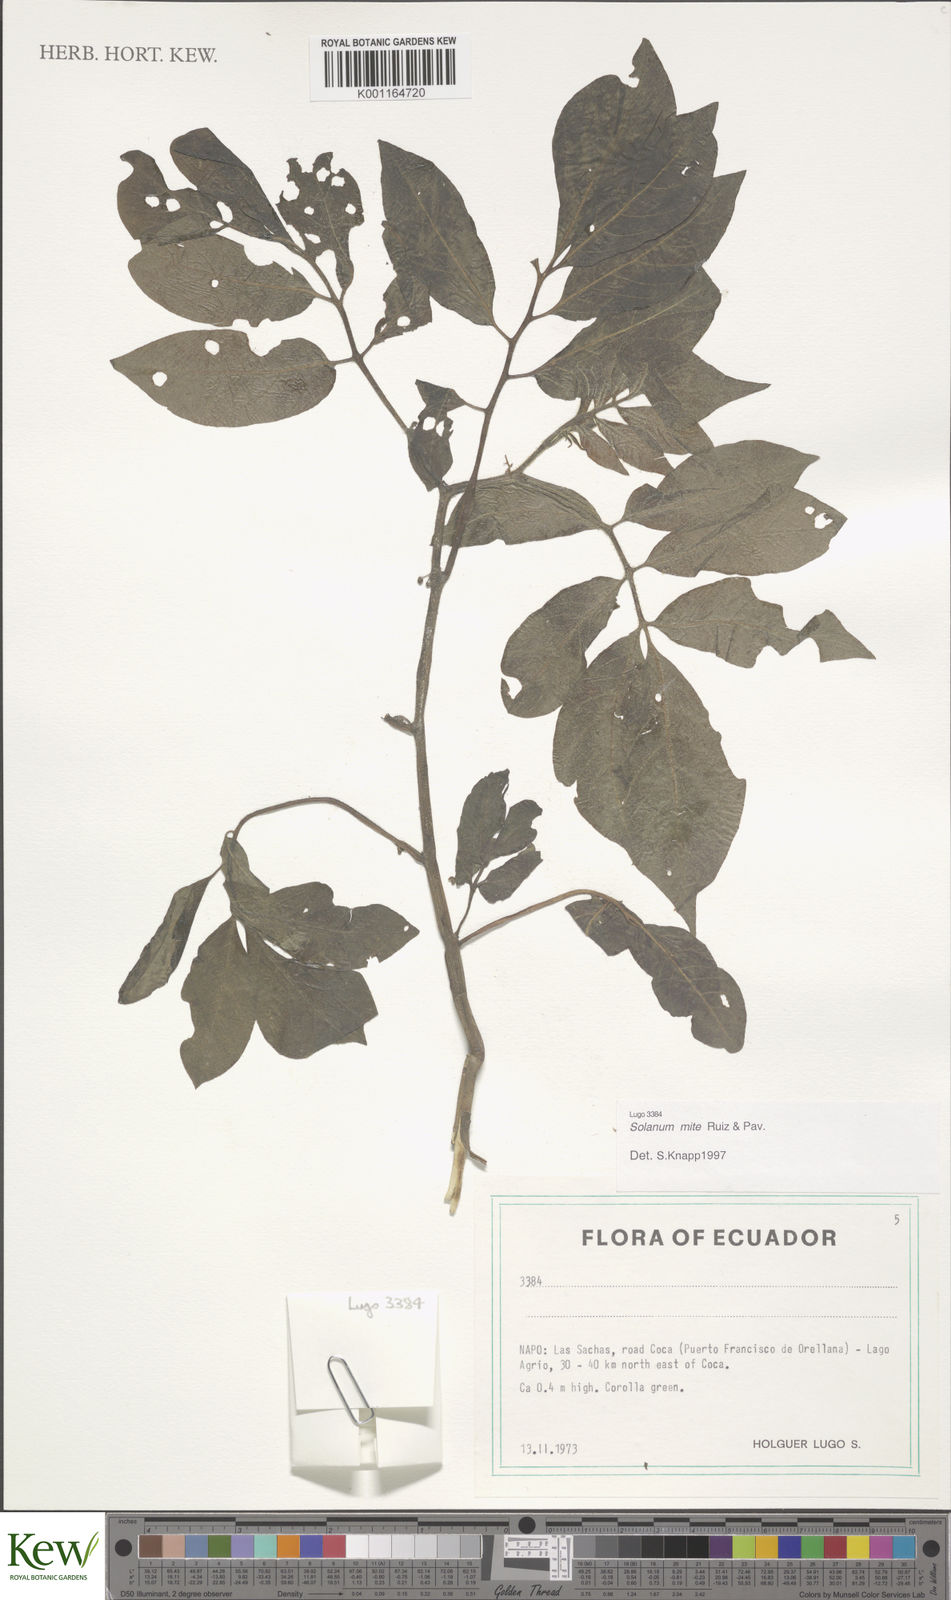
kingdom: Plantae
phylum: Tracheophyta
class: Magnoliopsida
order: Solanales
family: Solanaceae
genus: Solanum
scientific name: Solanum mite
